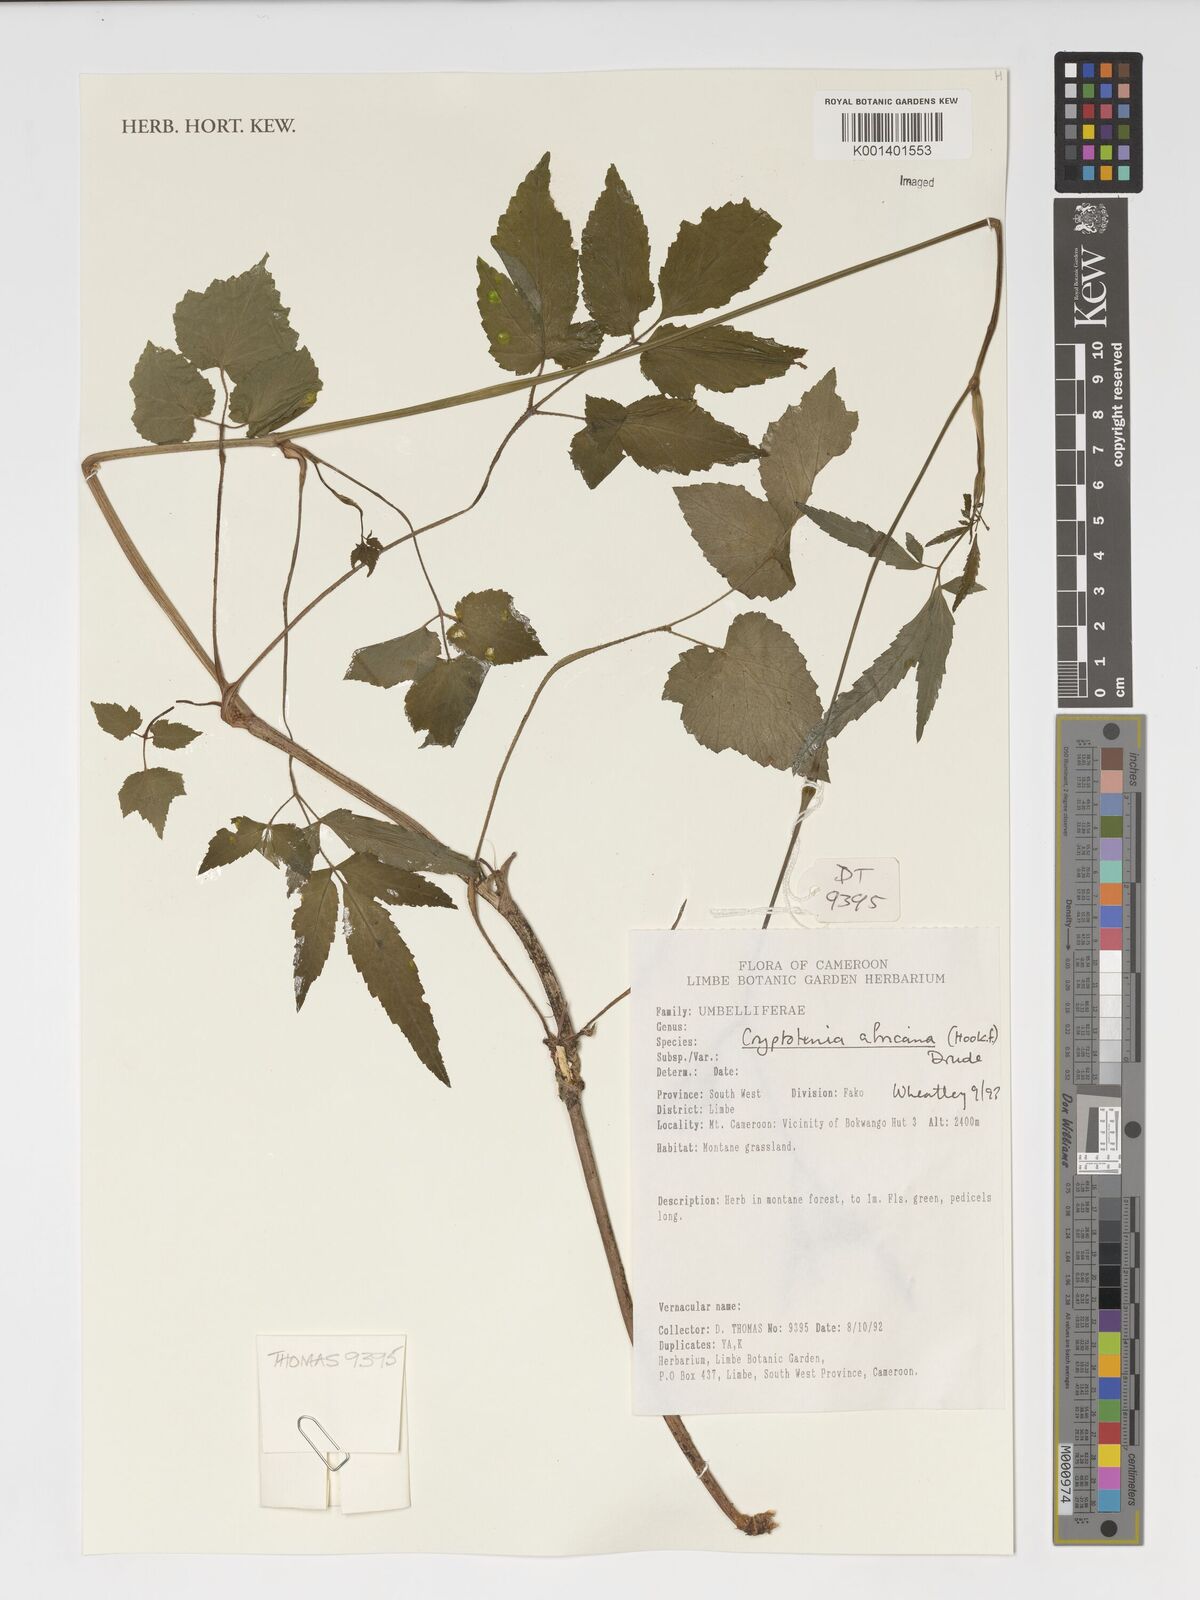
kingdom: Plantae
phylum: Tracheophyta
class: Magnoliopsida
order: Apiales
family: Apiaceae
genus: Cryptotaenia
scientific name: Cryptotaenia africana
